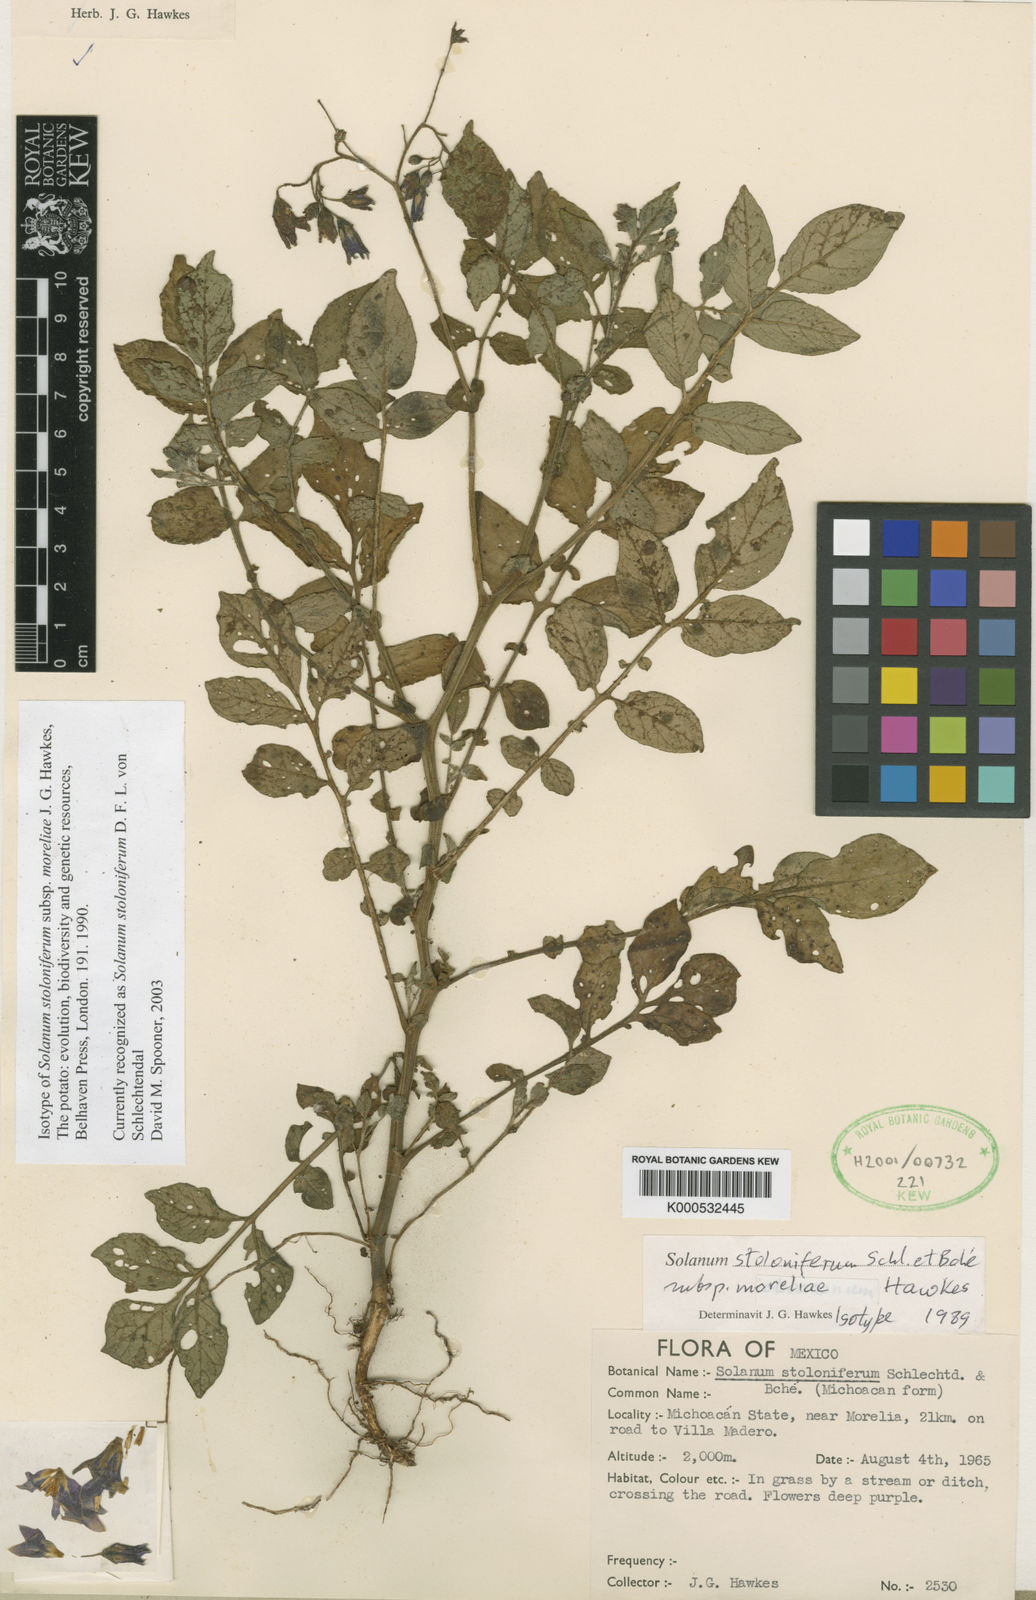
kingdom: Plantae
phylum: Tracheophyta
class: Magnoliopsida
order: Solanales
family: Solanaceae
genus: Solanum
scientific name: Solanum
